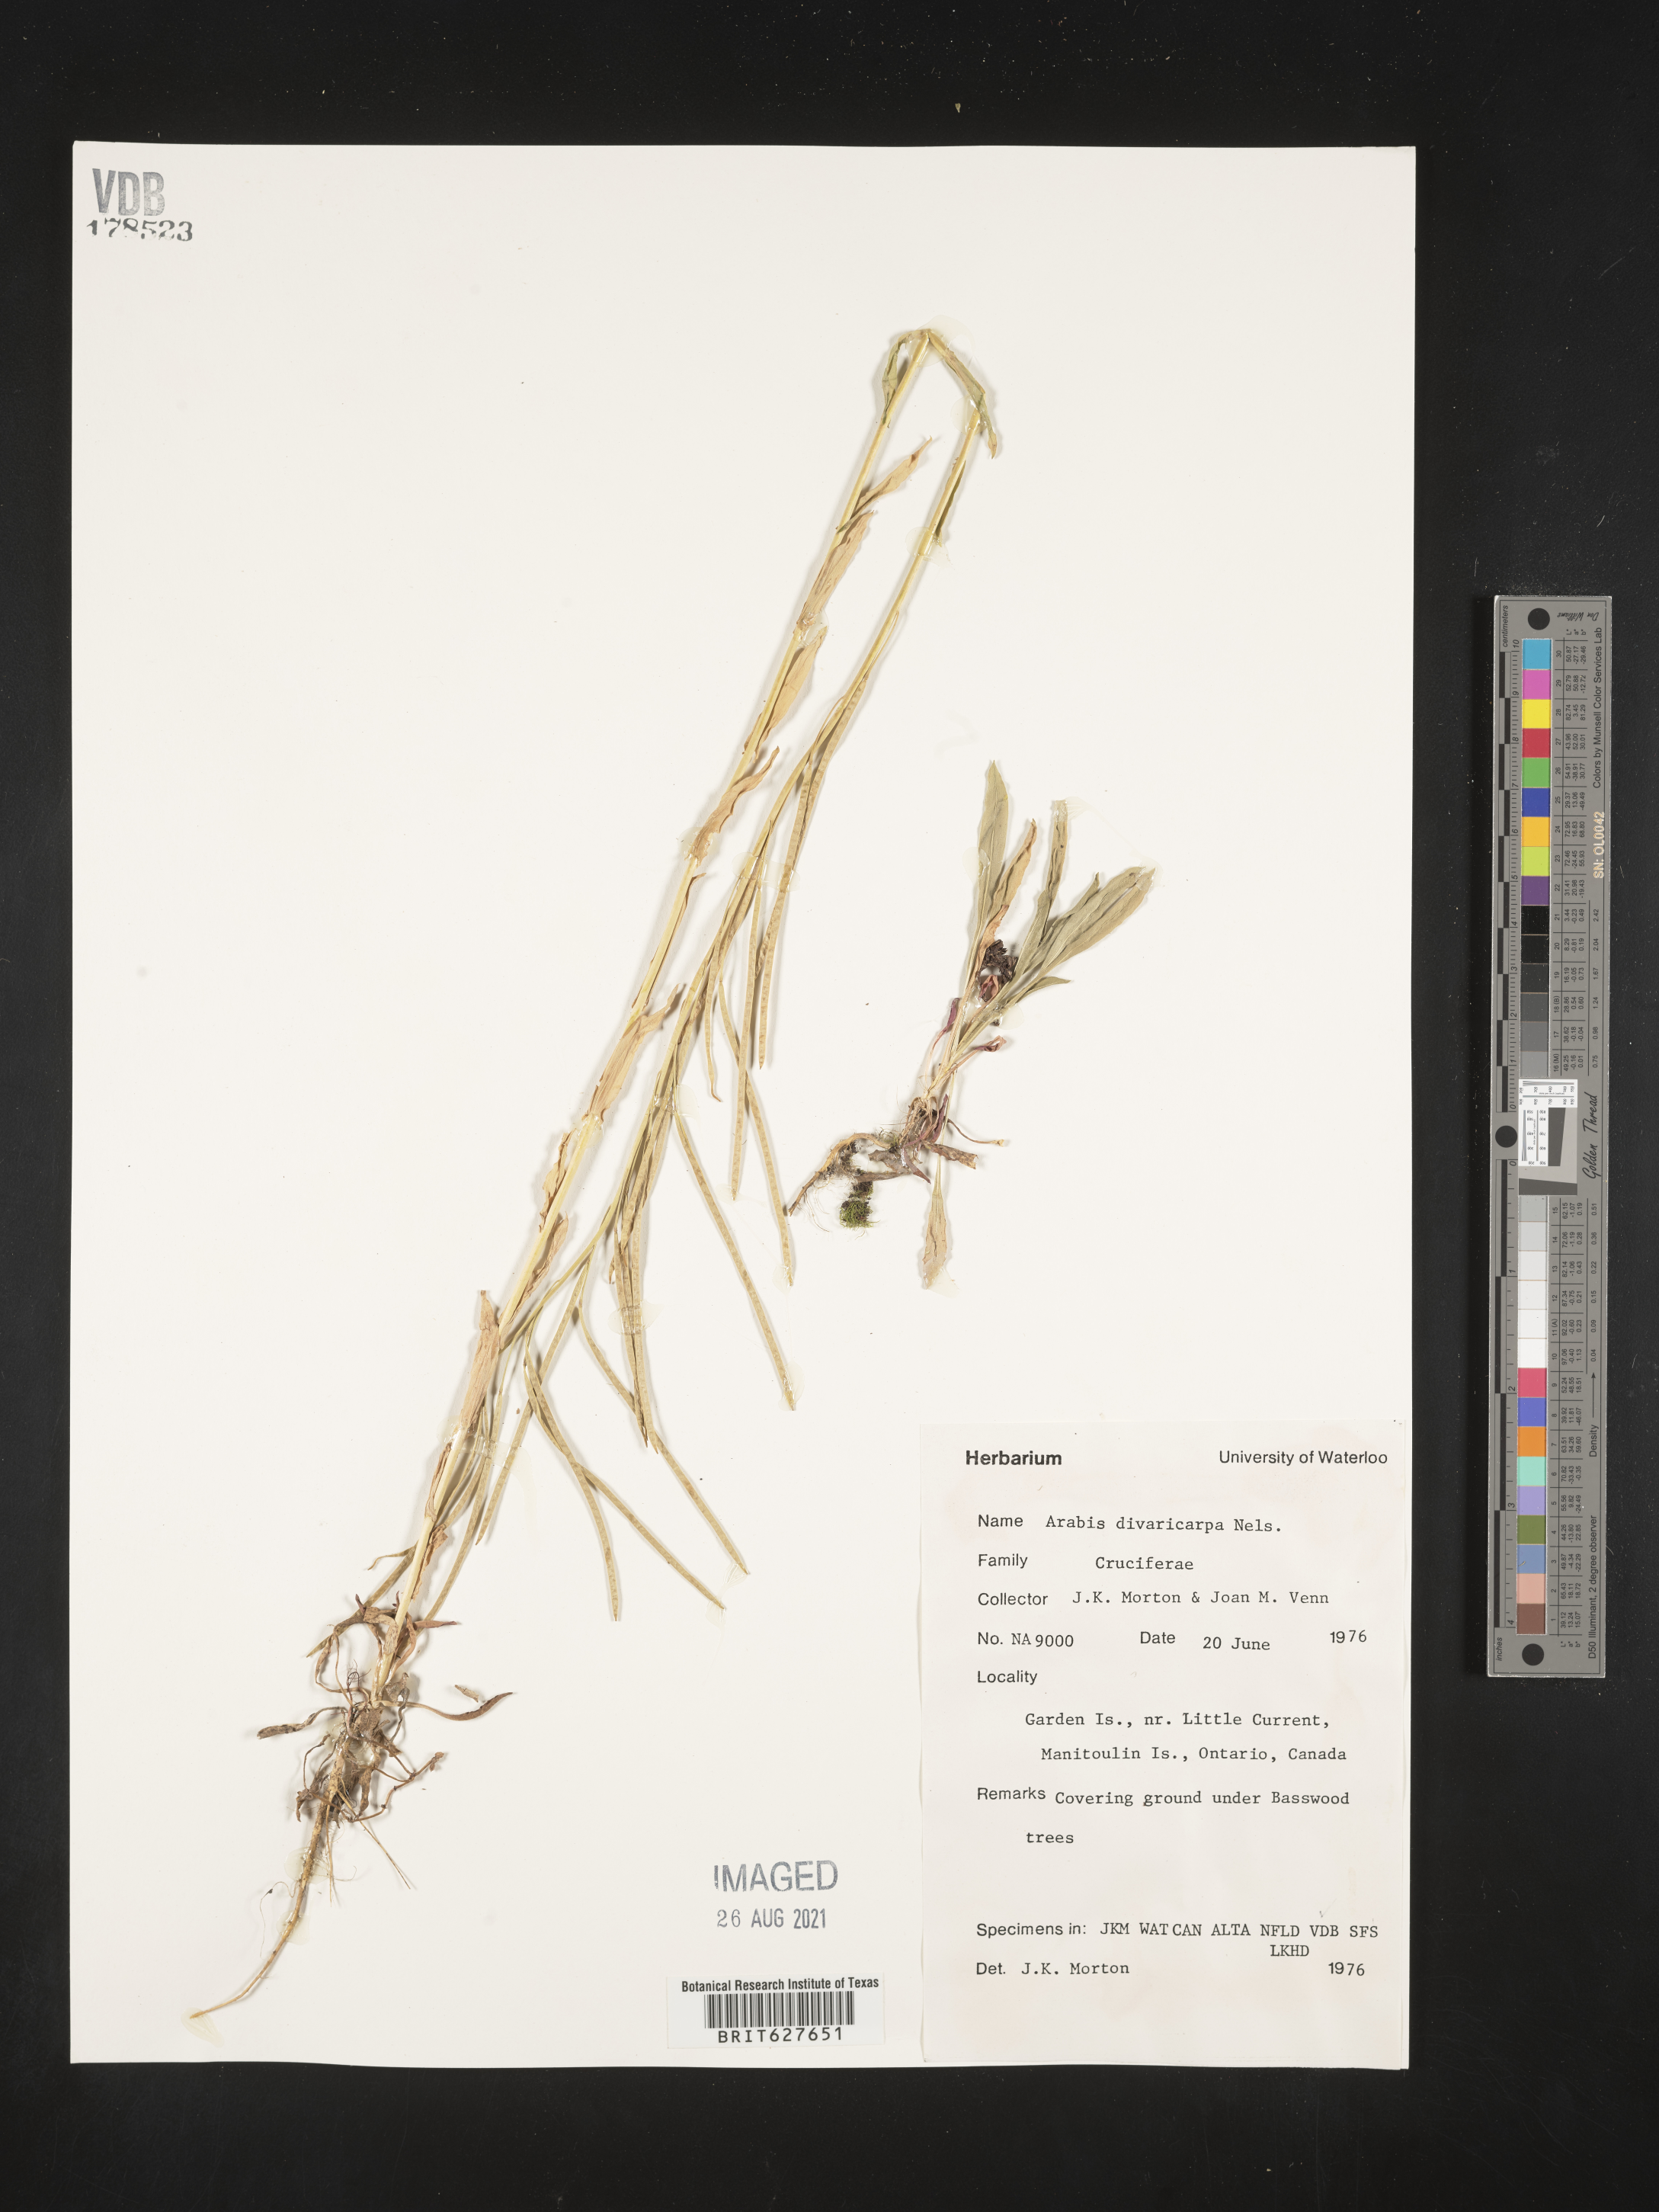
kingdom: Plantae
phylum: Tracheophyta
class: Magnoliopsida
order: Brassicales
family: Brassicaceae
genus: Boechera
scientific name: Boechera divaricarpa
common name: Divaricate rockcress
